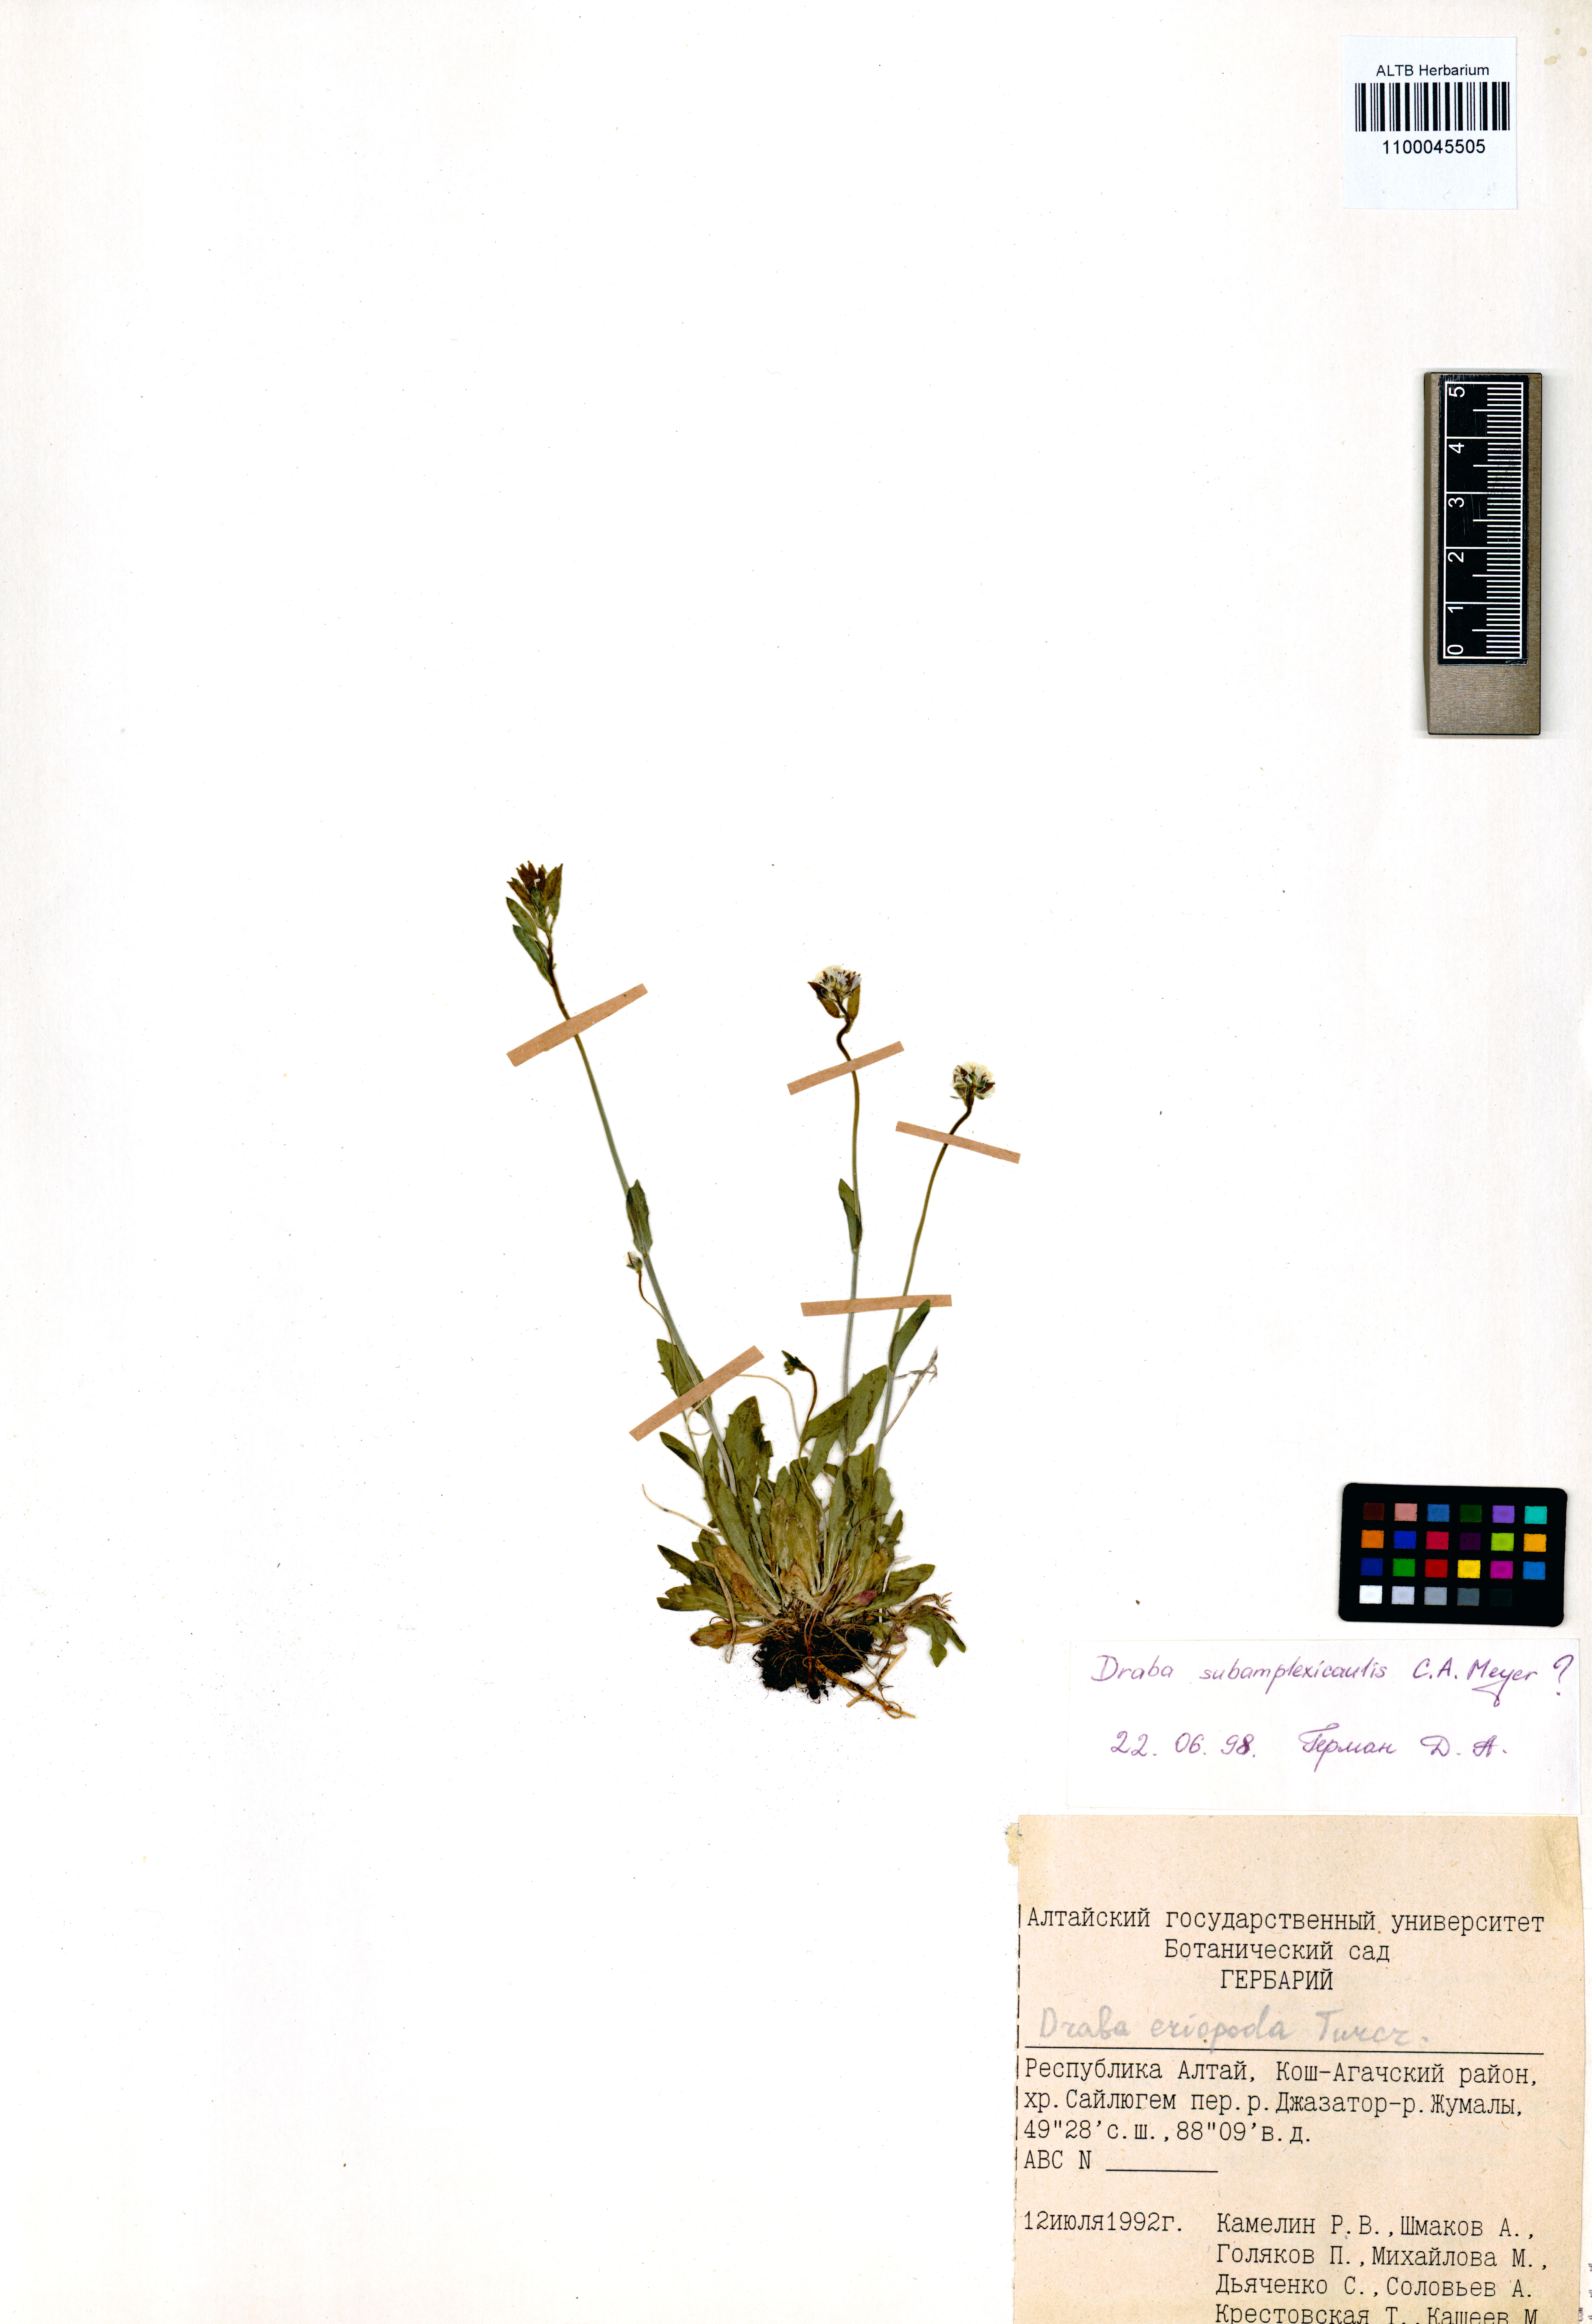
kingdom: Plantae
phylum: Tracheophyta
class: Magnoliopsida
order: Brassicales
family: Brassicaceae
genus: Draba
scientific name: Draba subamplexicaulis
